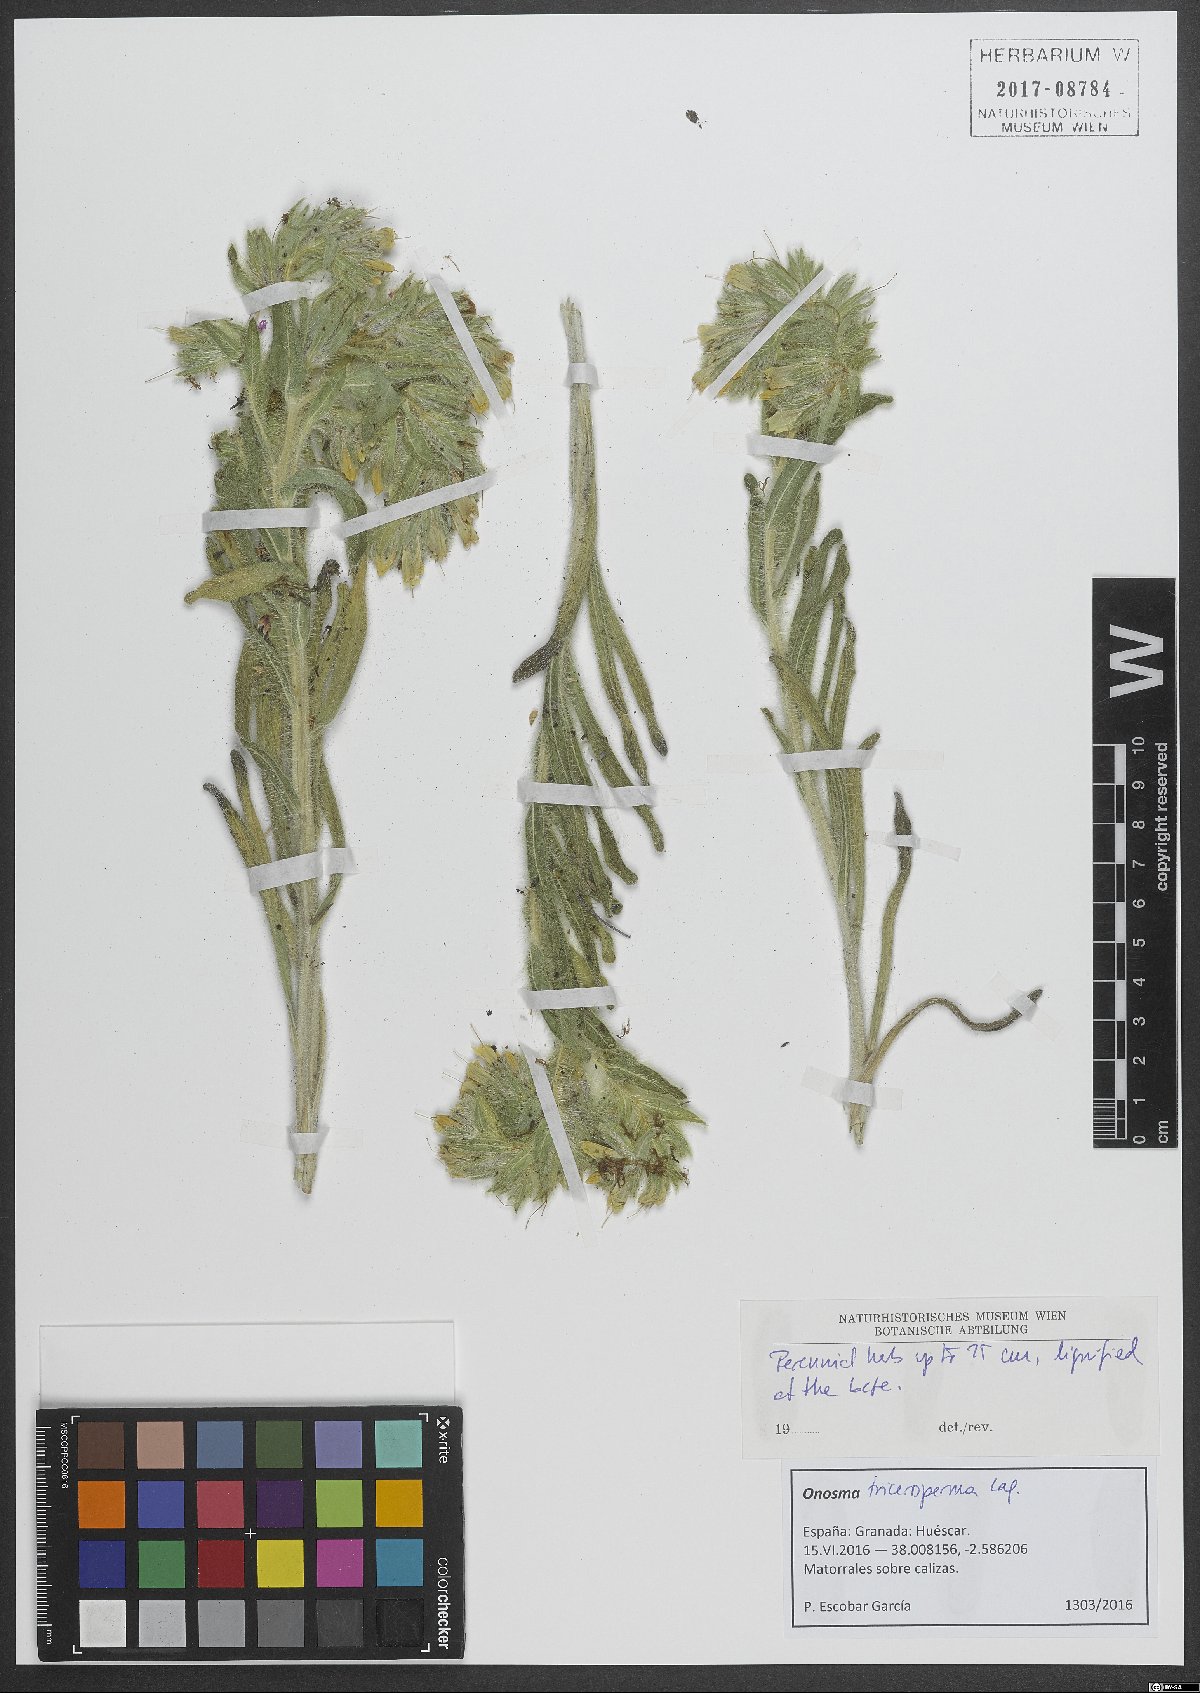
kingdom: Plantae
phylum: Tracheophyta
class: Magnoliopsida
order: Boraginales
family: Boraginaceae
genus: Onosma
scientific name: Onosma tricerosperma
